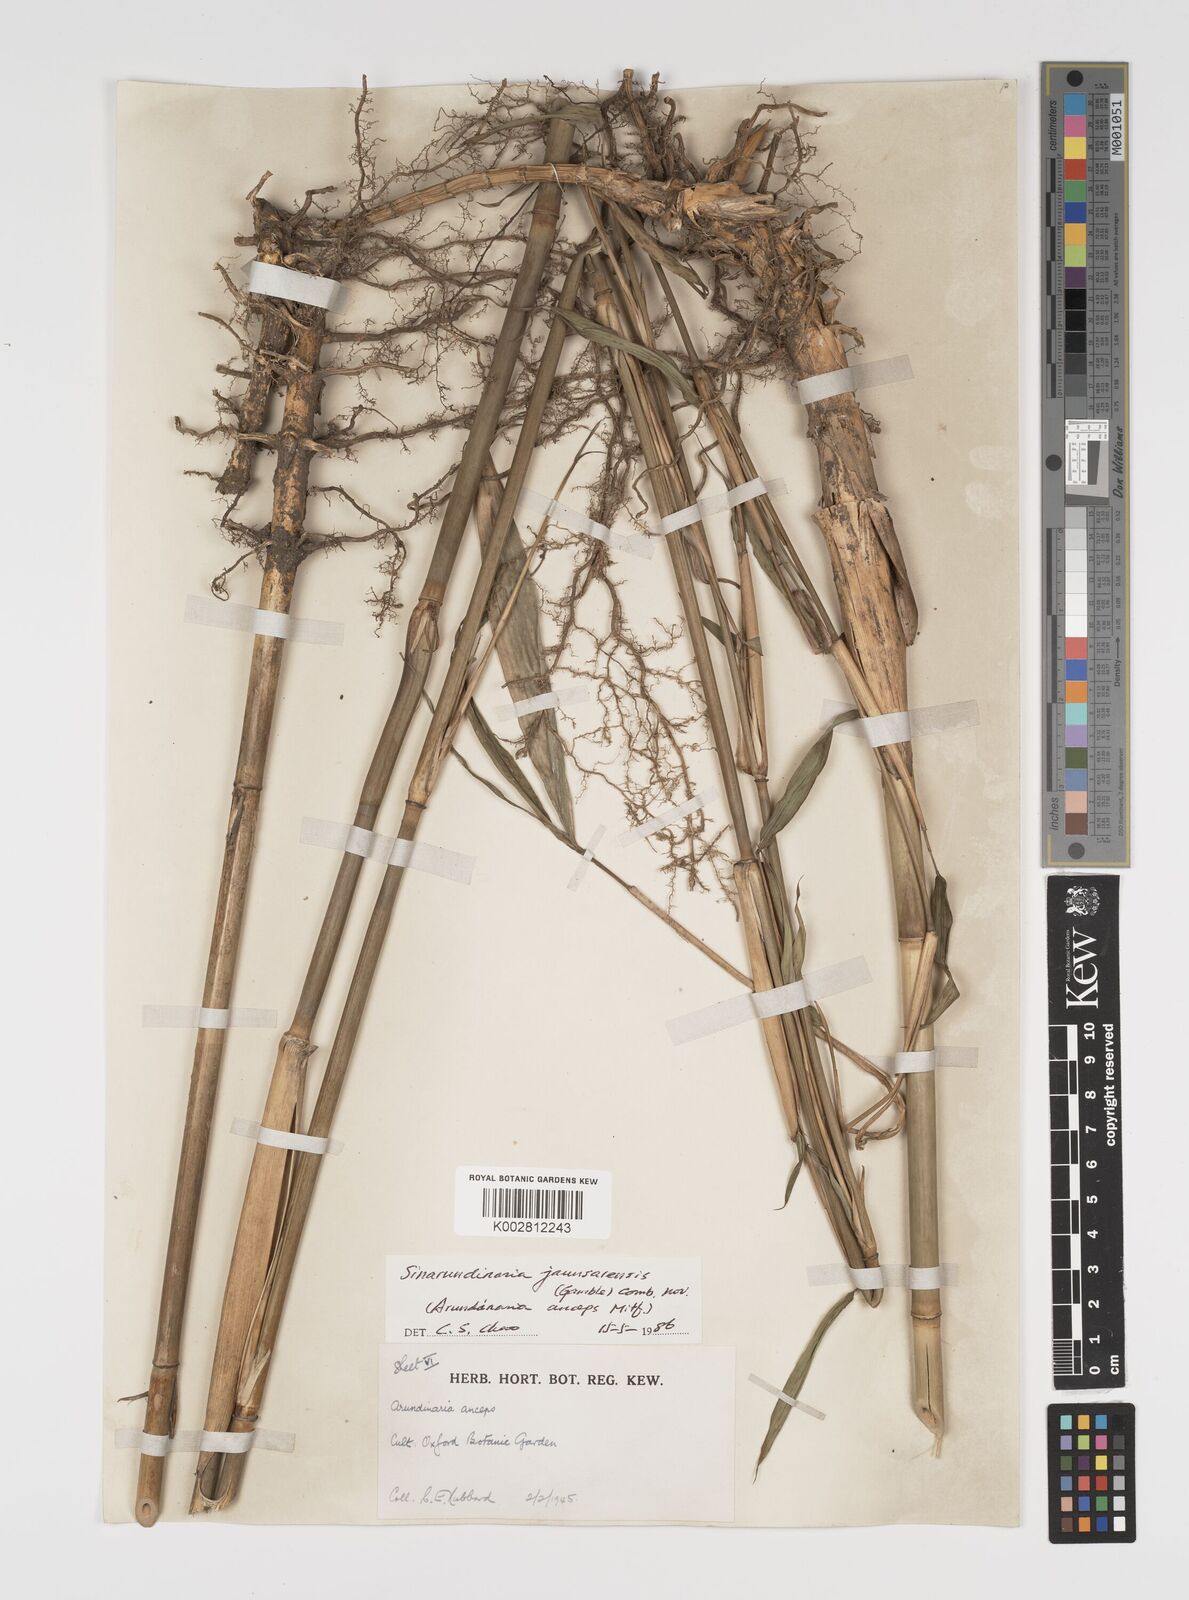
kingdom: Plantae
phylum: Tracheophyta
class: Liliopsida
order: Poales
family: Poaceae
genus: Yushania
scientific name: Yushania
